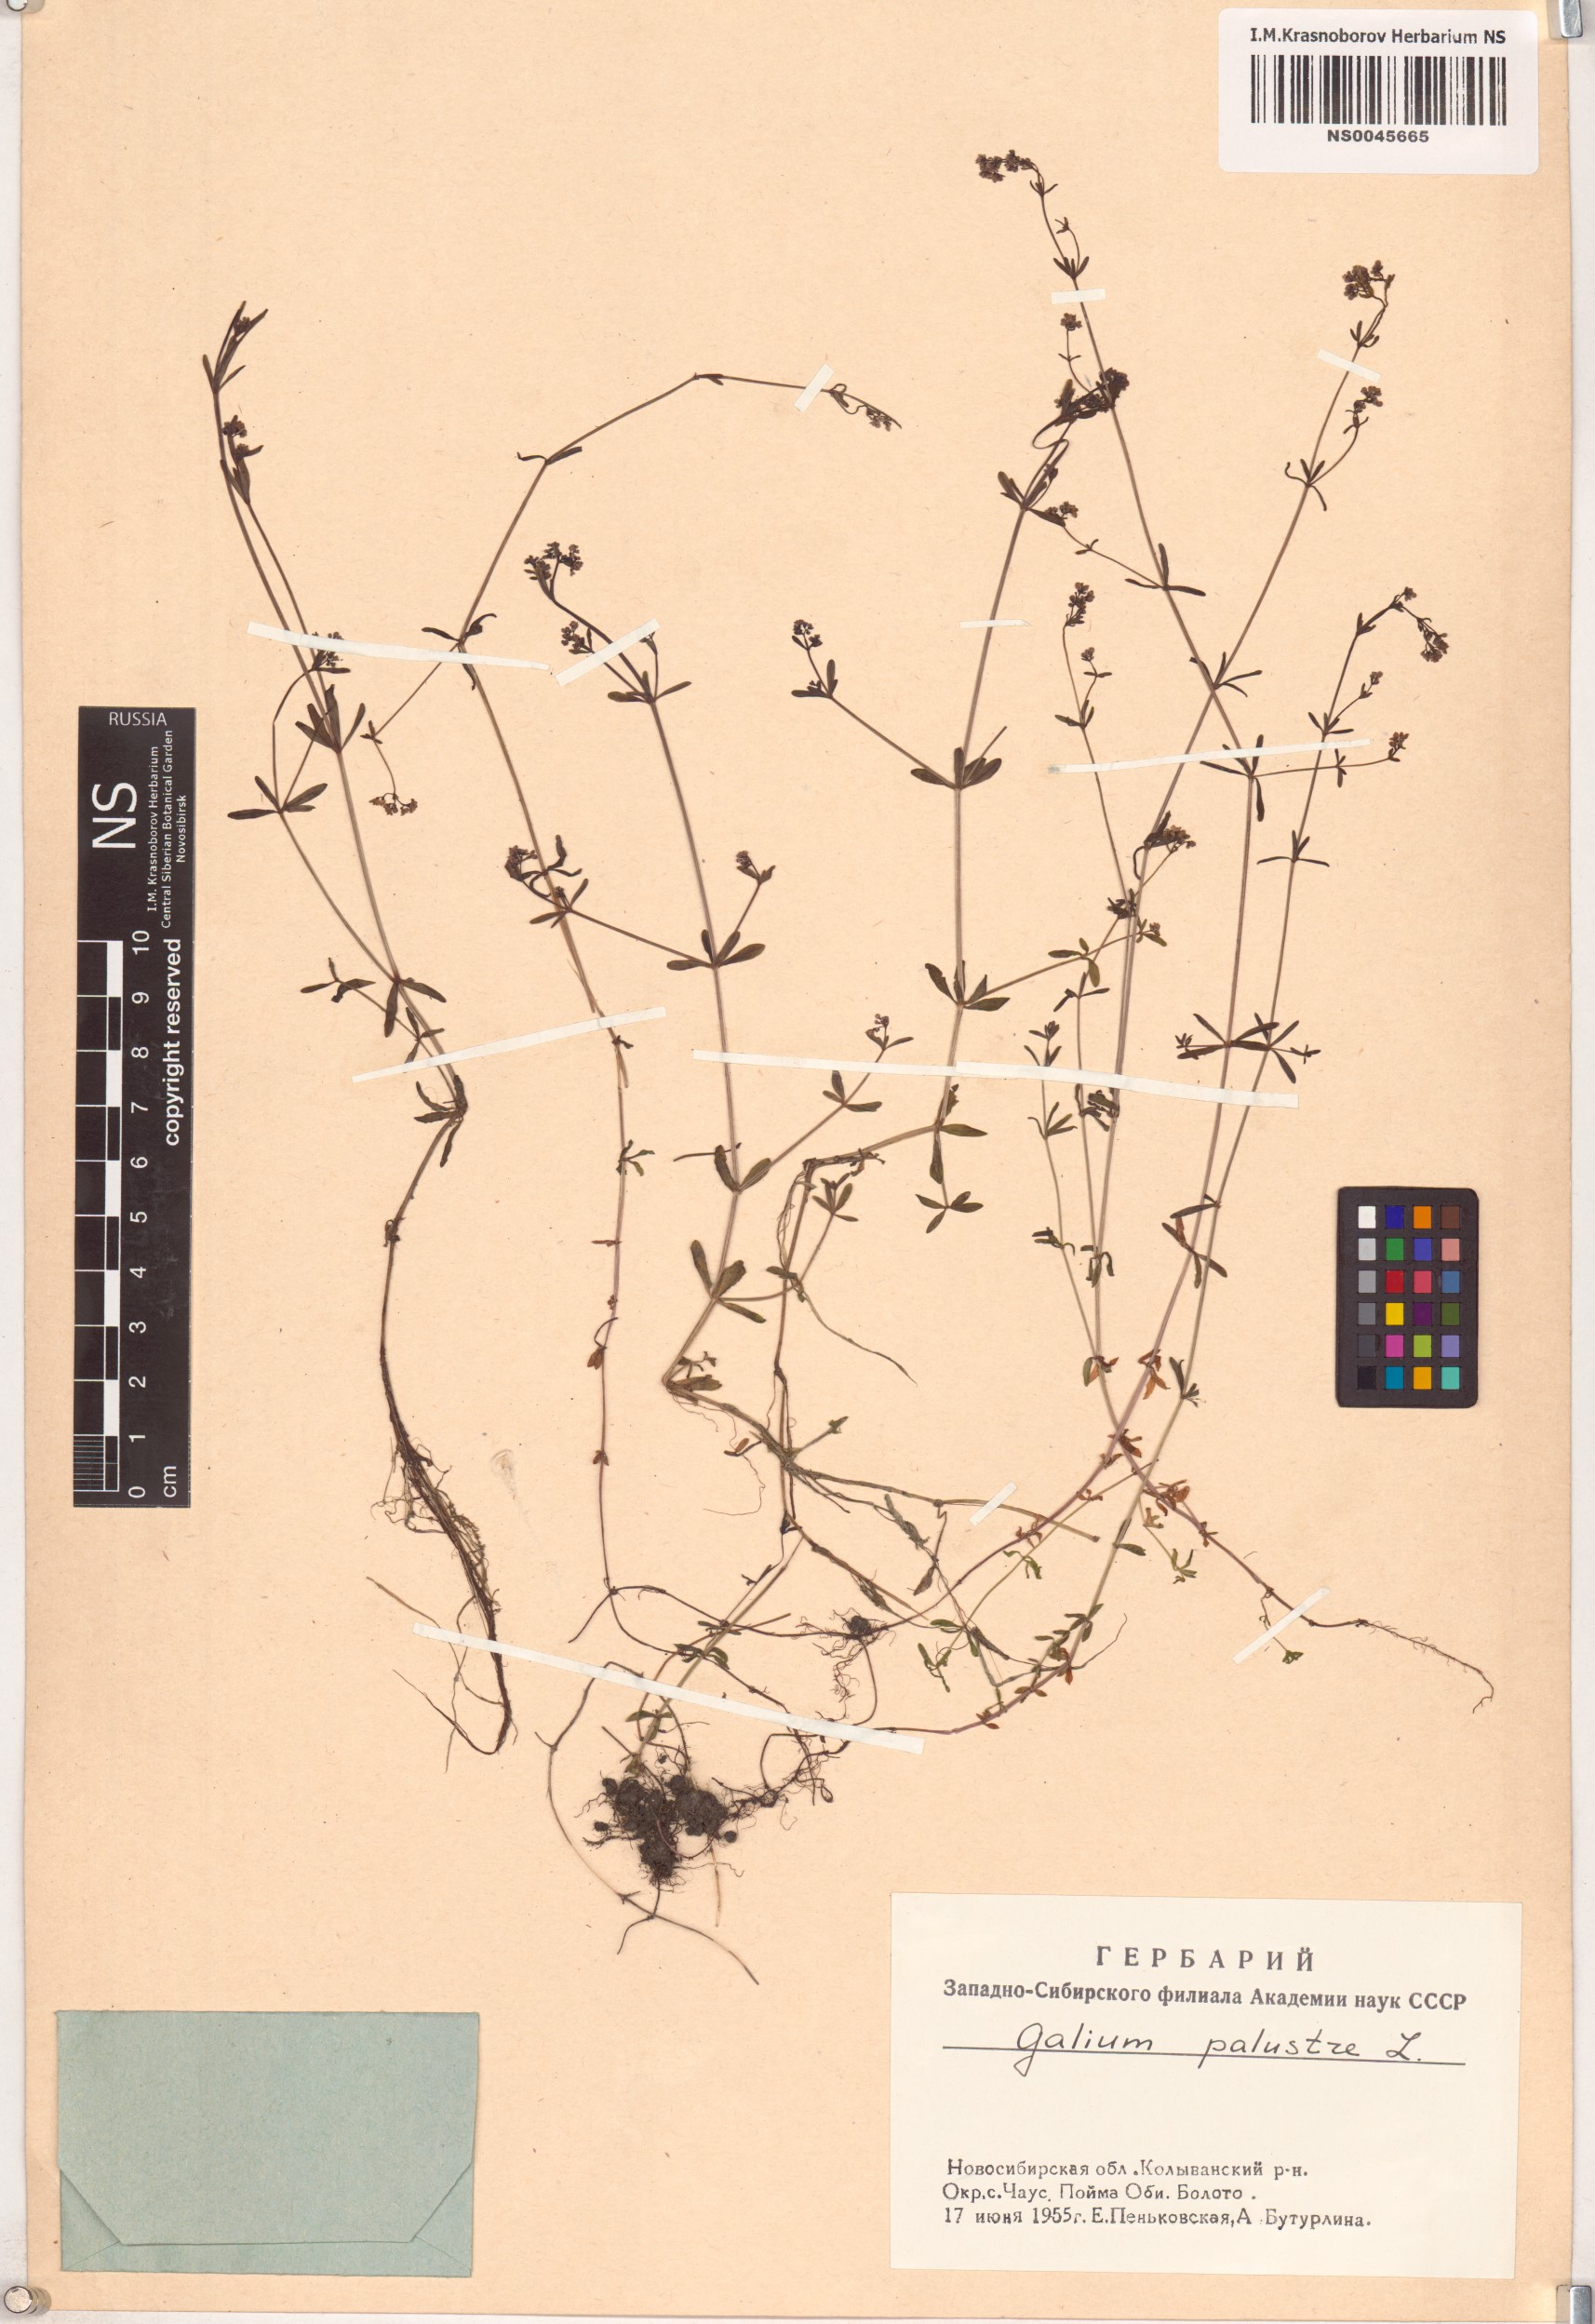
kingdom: Plantae
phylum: Tracheophyta
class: Magnoliopsida
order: Gentianales
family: Rubiaceae
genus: Galium
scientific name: Galium palustre
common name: Common marsh-bedstraw
